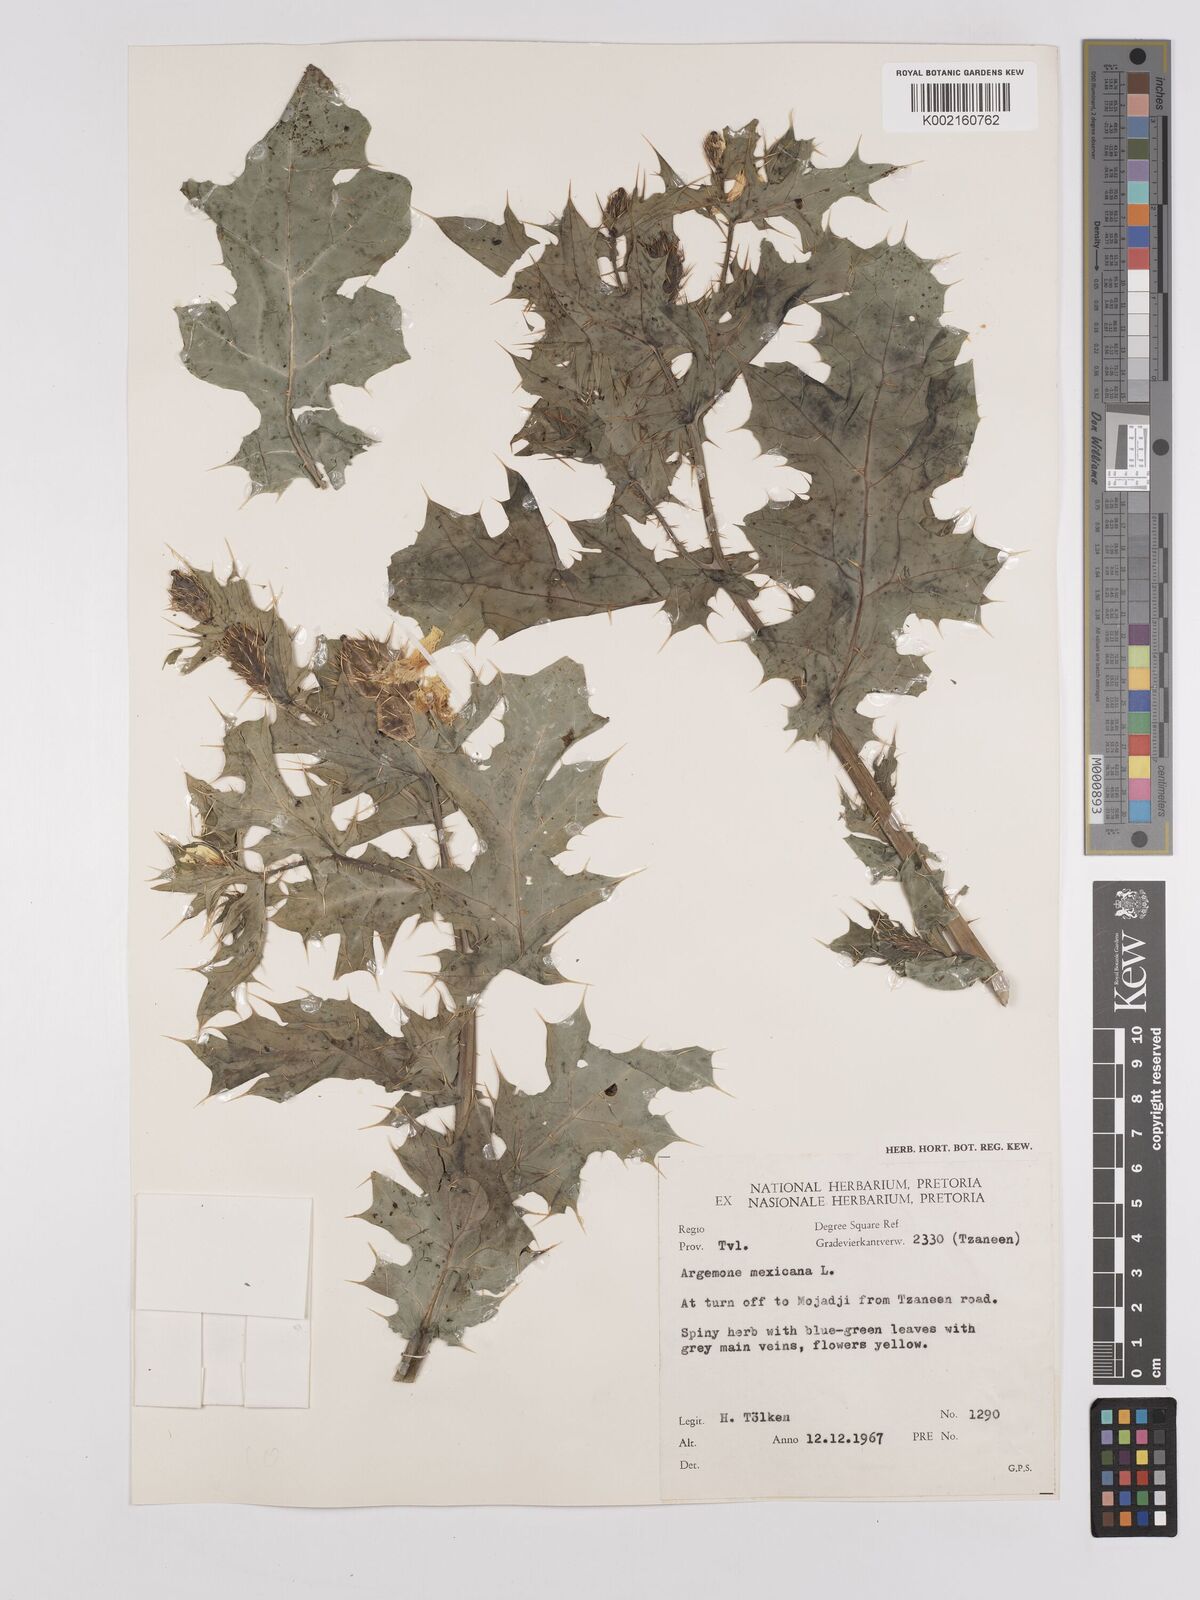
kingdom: Plantae
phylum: Tracheophyta
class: Magnoliopsida
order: Ranunculales
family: Papaveraceae
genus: Argemone
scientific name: Argemone mexicana
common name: Mexican poppy
